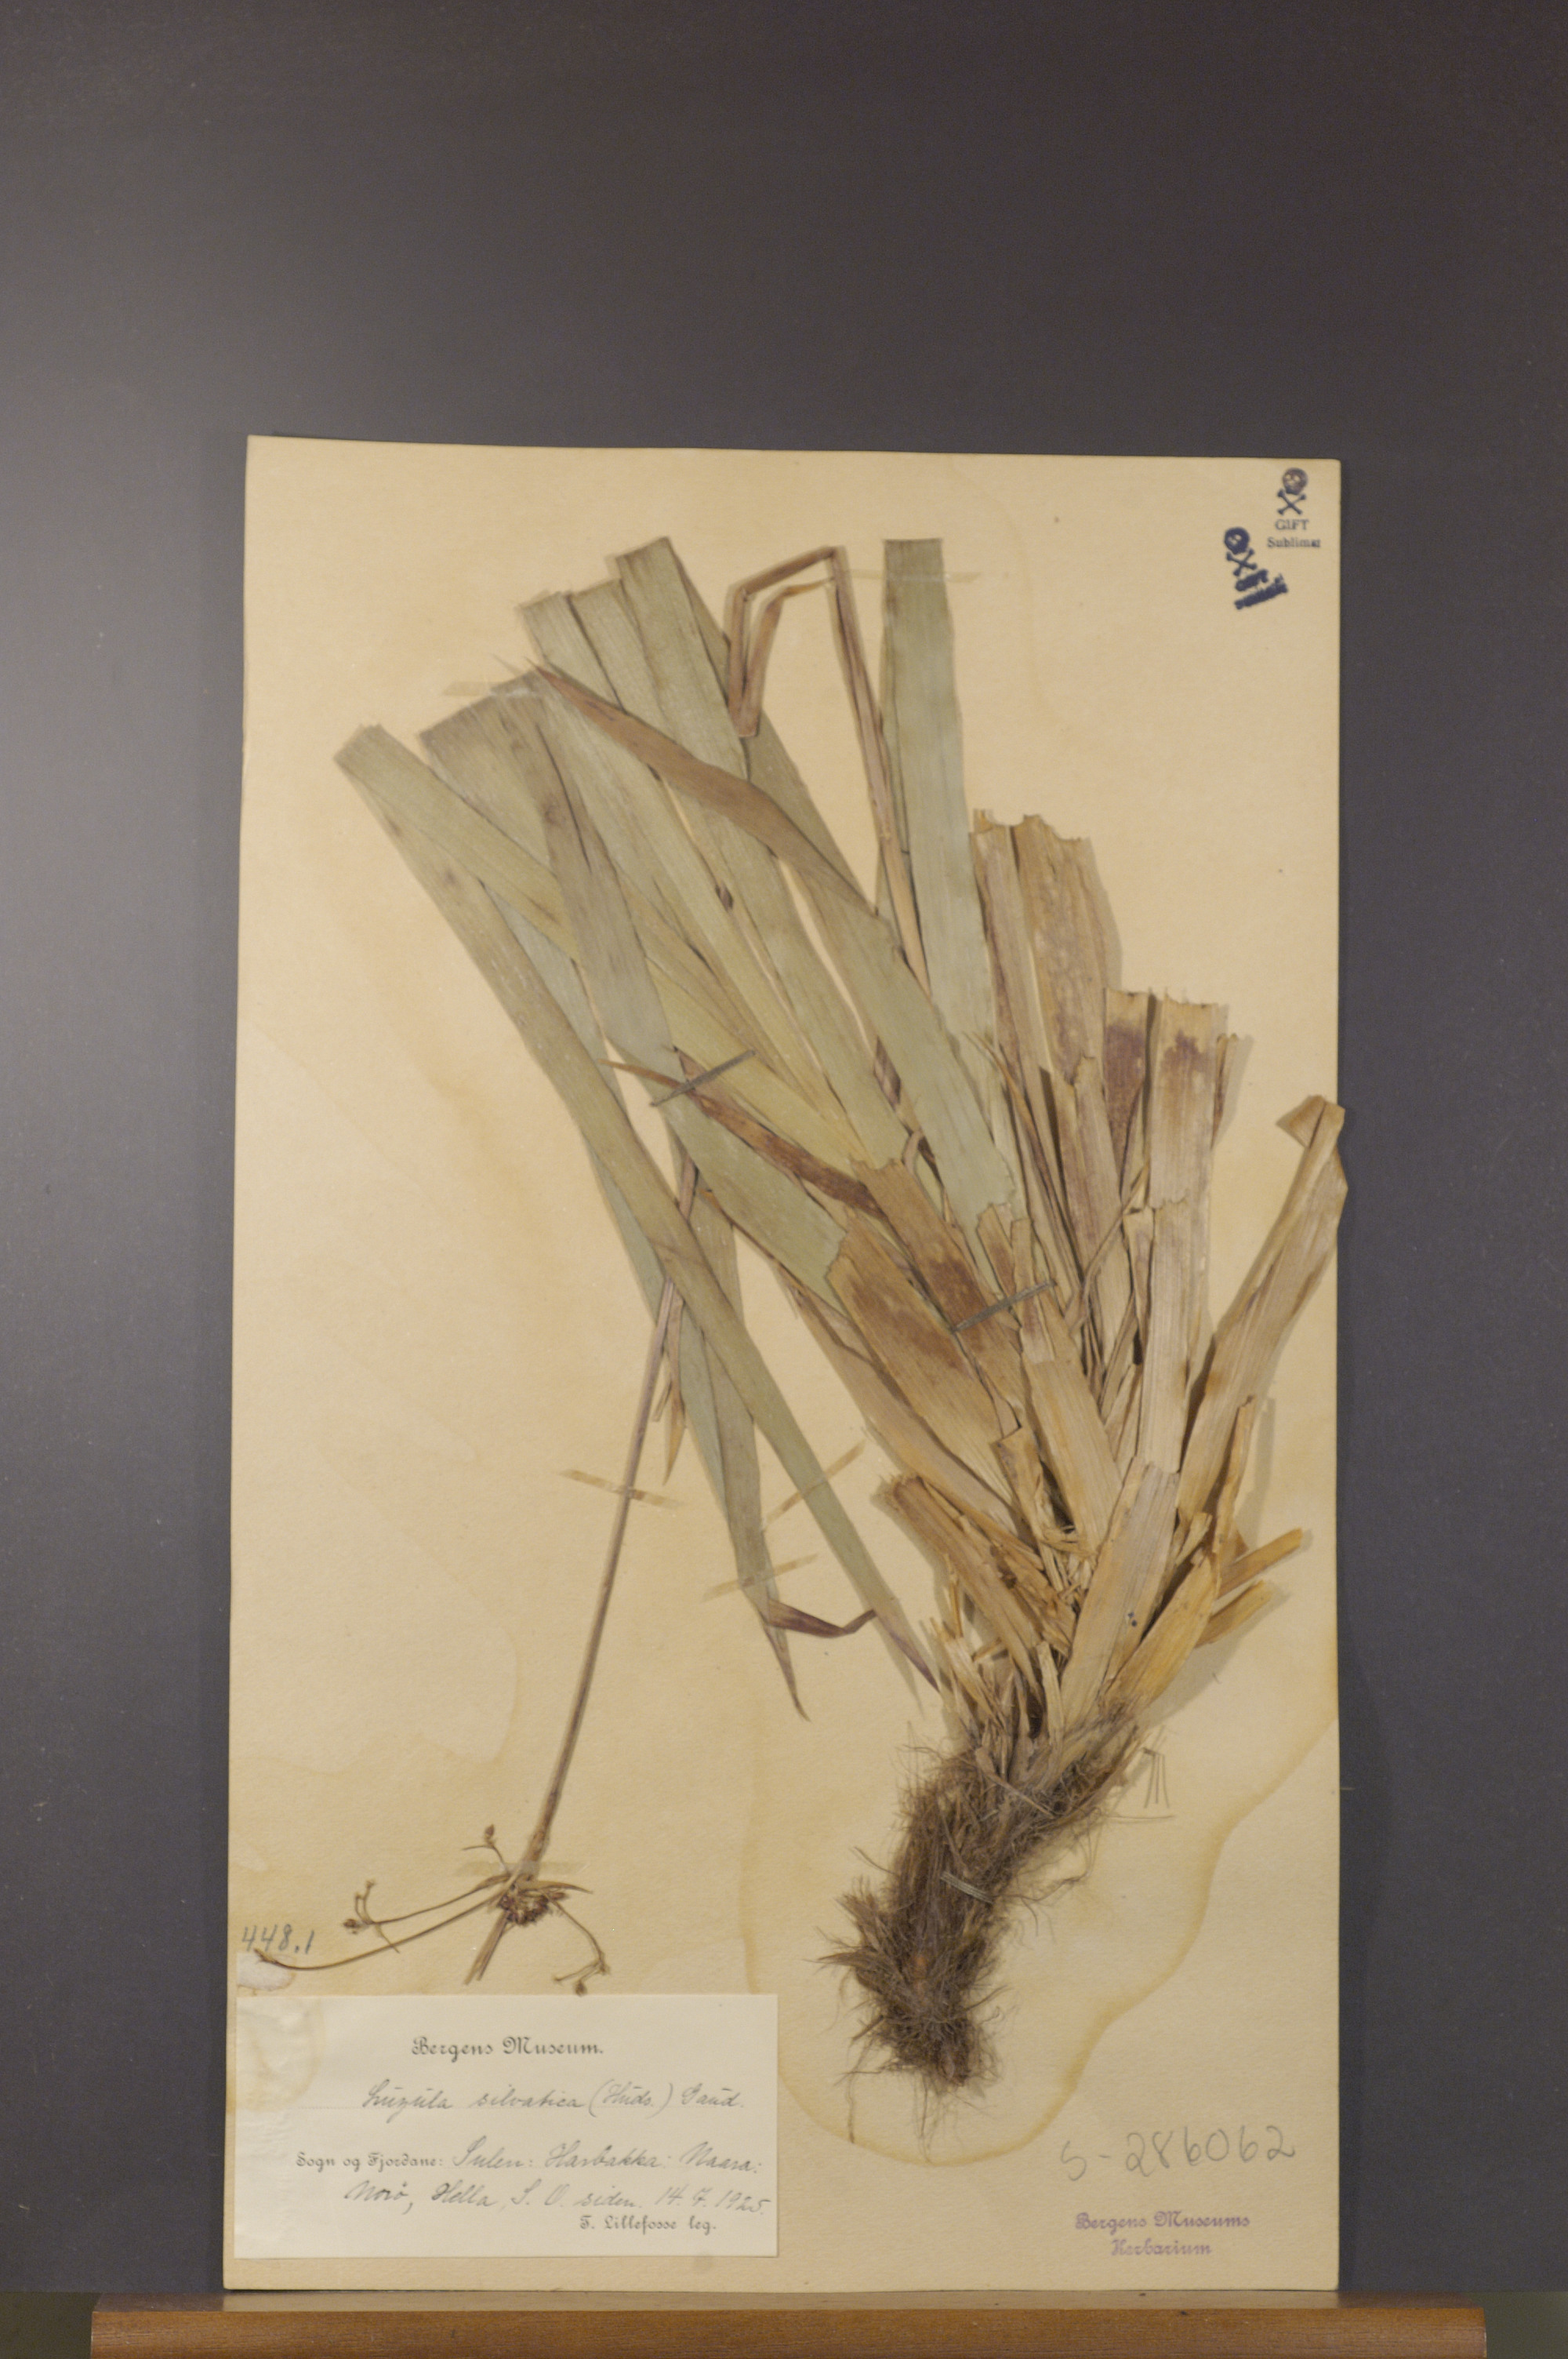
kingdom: Plantae
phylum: Tracheophyta
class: Liliopsida
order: Poales
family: Juncaceae
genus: Luzula
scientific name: Luzula sylvatica
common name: Great wood-rush
